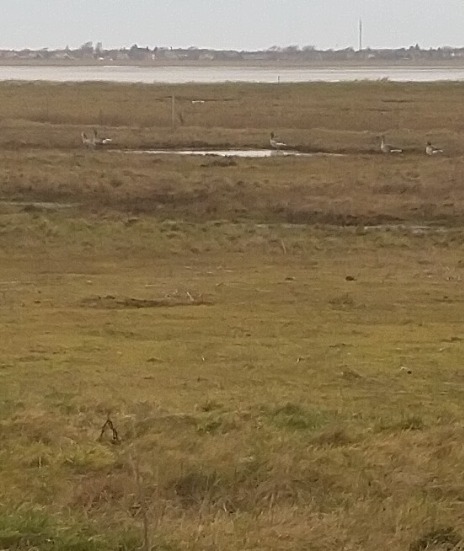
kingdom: Animalia
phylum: Chordata
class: Aves
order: Anseriformes
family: Anatidae
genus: Anser
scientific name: Anser anser
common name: Grågås
